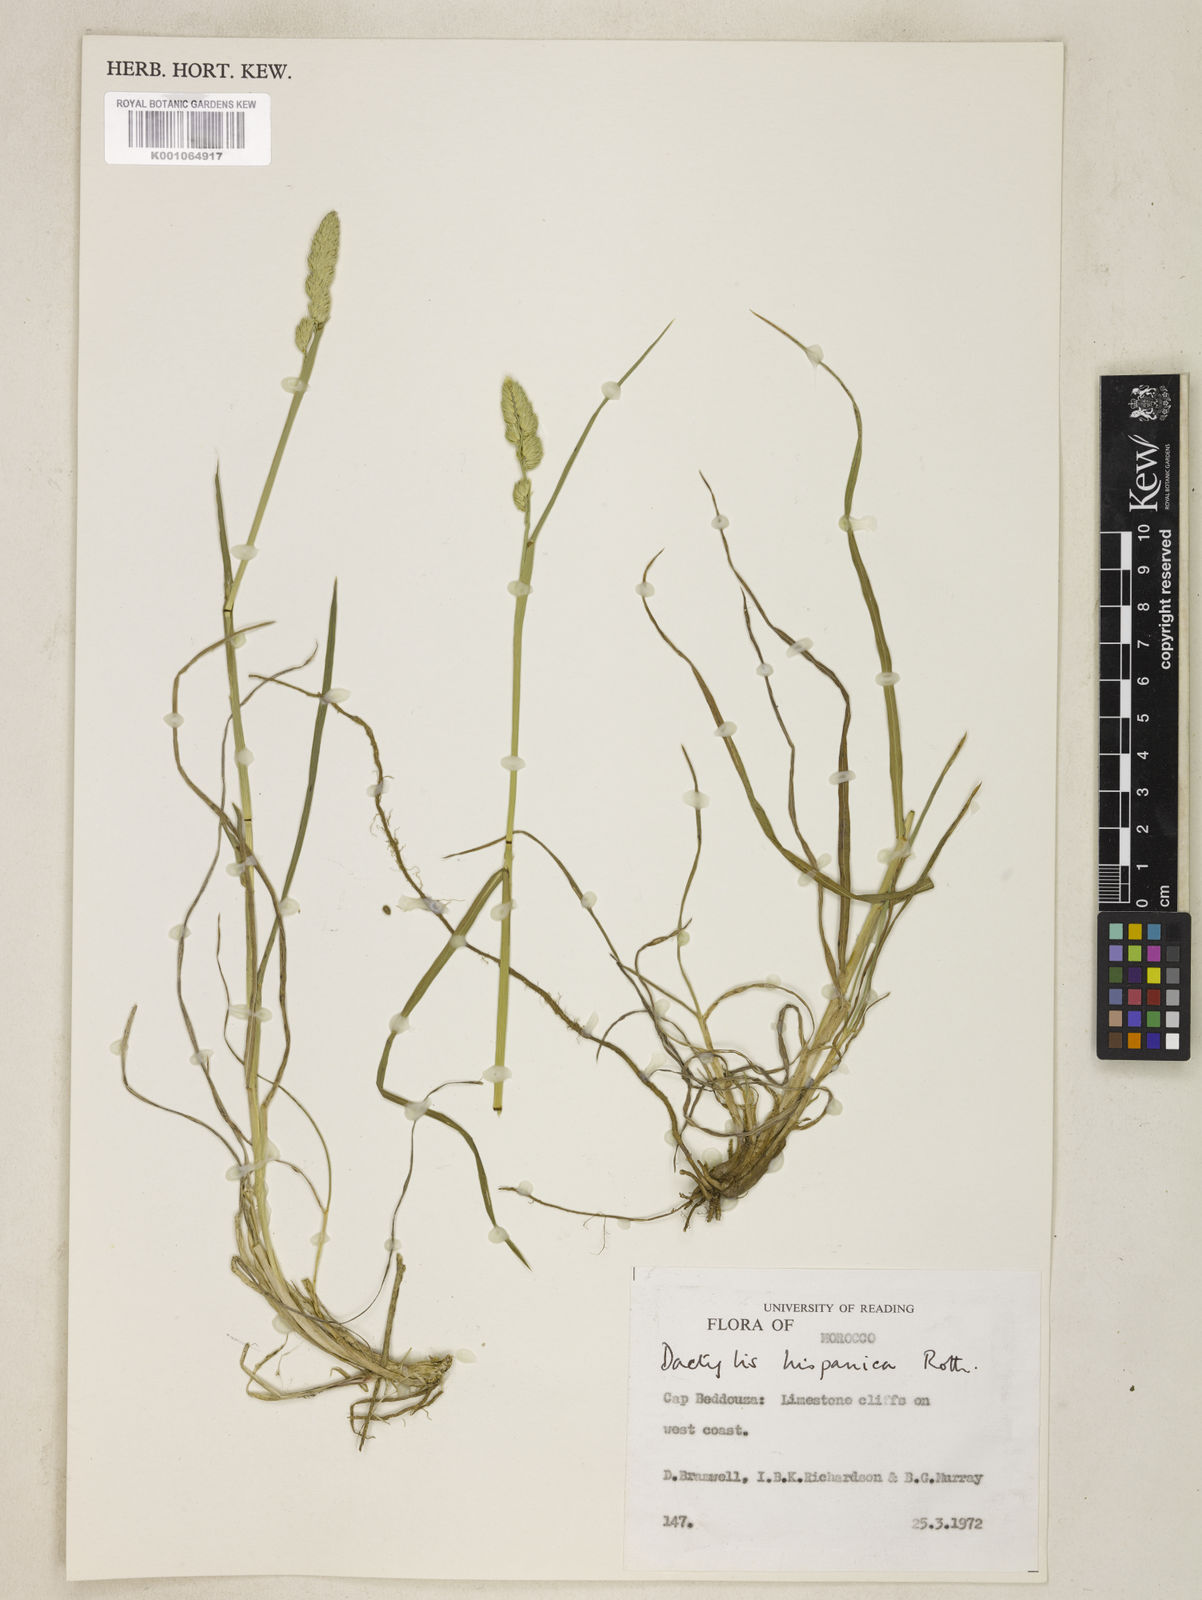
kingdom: Plantae
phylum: Tracheophyta
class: Liliopsida
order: Poales
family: Poaceae
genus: Dactylis
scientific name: Dactylis glomerata
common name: Orchardgrass
